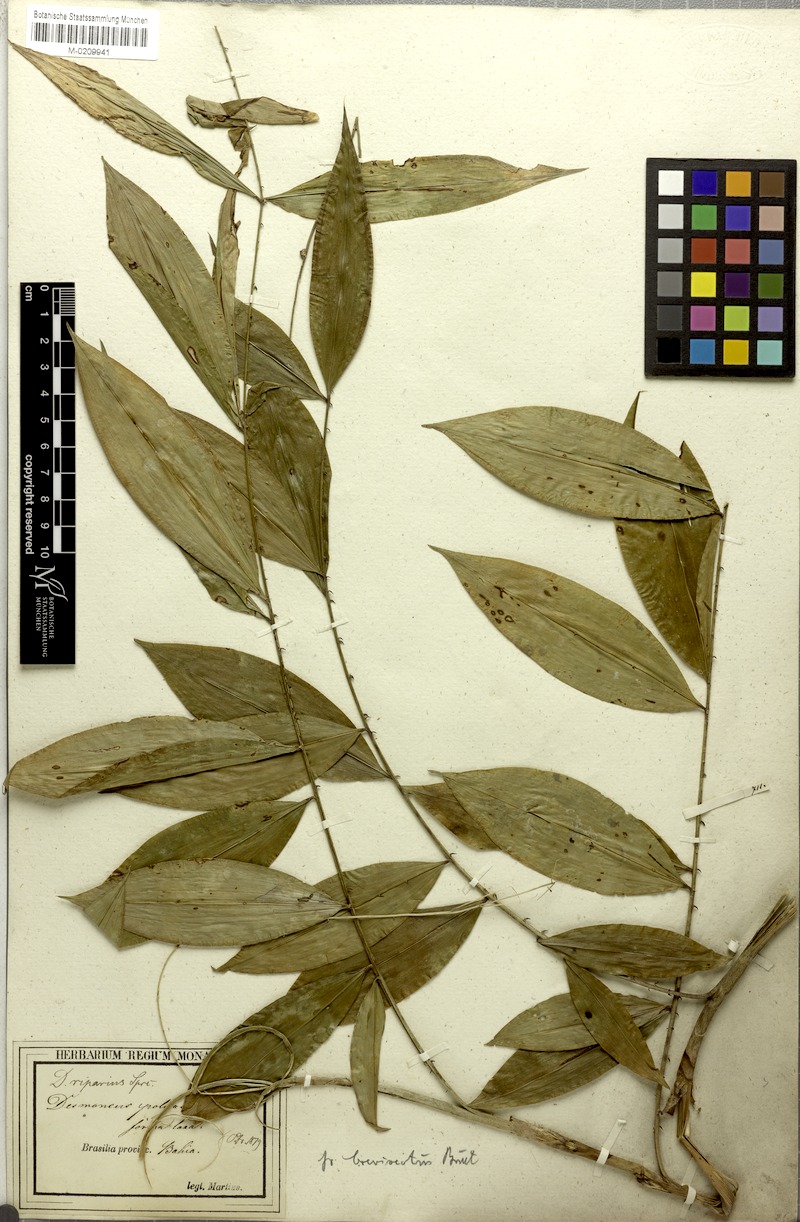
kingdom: Plantae
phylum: Tracheophyta
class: Liliopsida
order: Arecales
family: Arecaceae
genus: Desmoncus
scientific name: Desmoncus polyacanthos
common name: Suriname bramble palm
